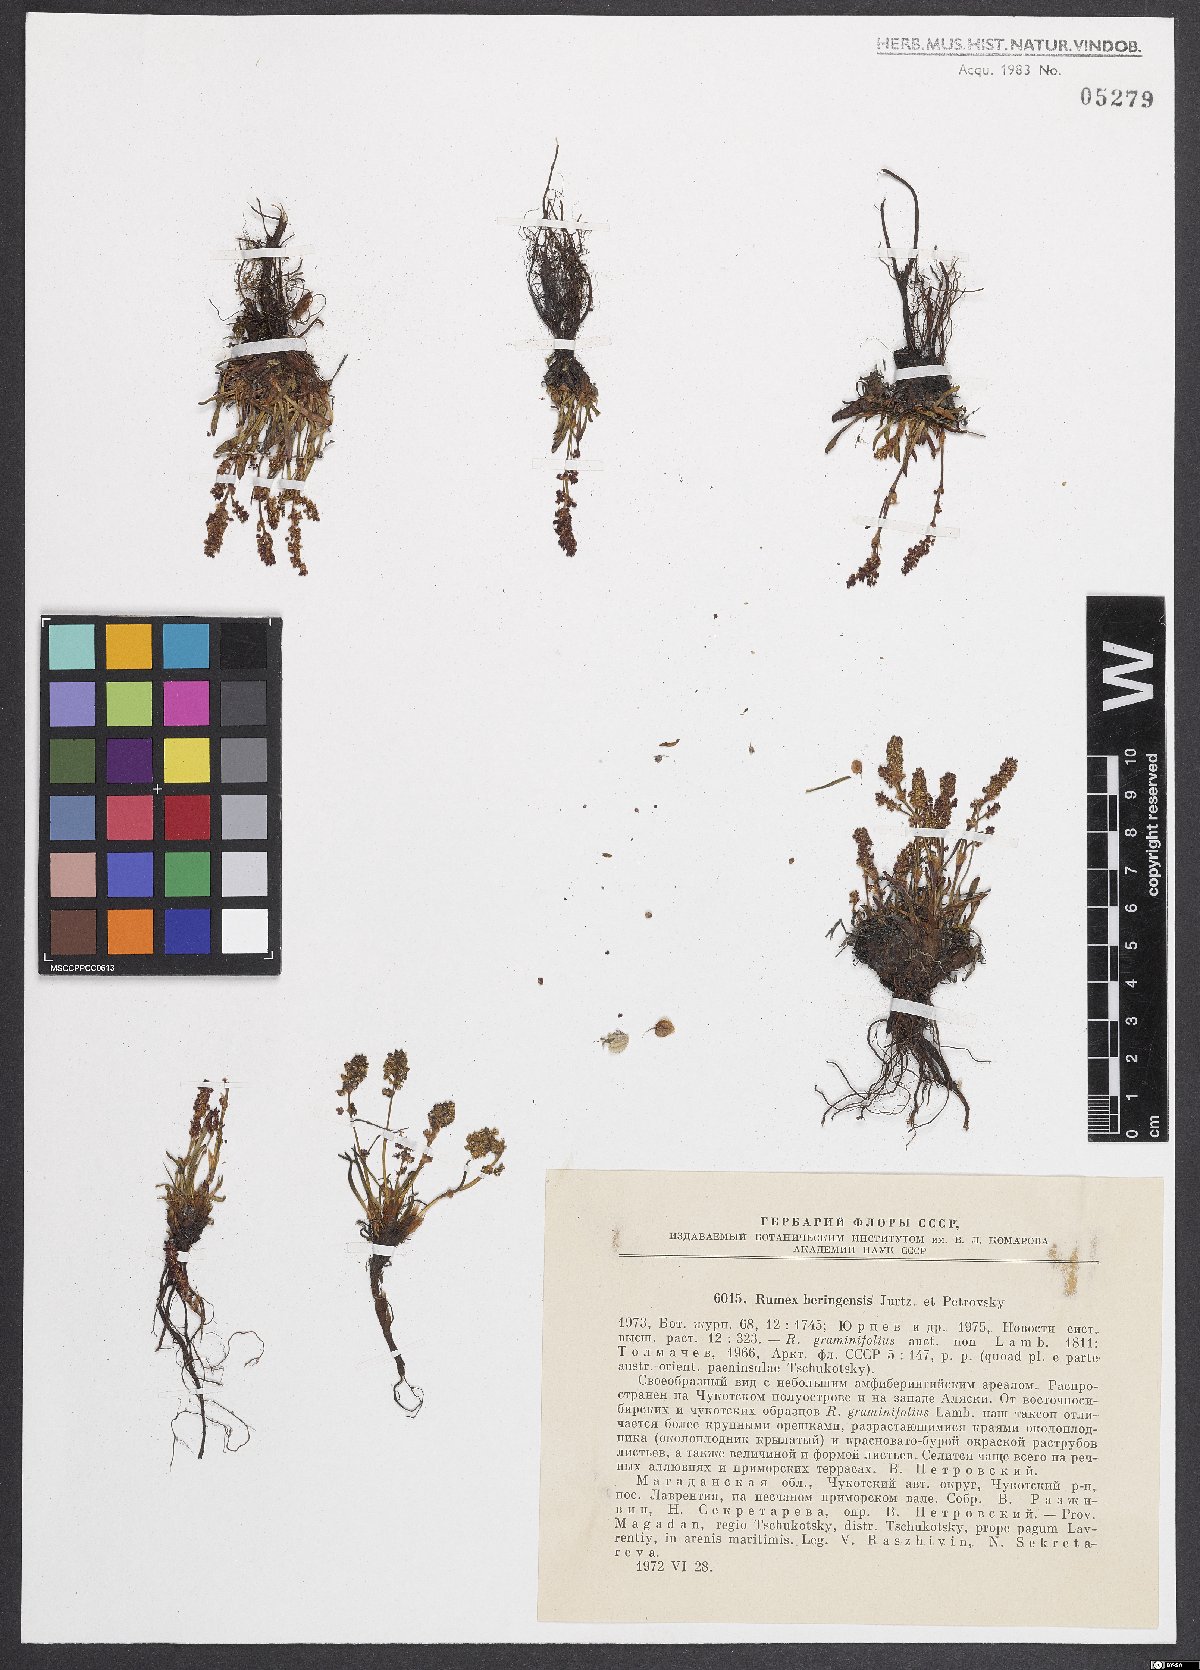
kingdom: Plantae
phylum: Tracheophyta
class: Magnoliopsida
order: Caryophyllales
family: Polygonaceae
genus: Rumex
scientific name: Rumex
